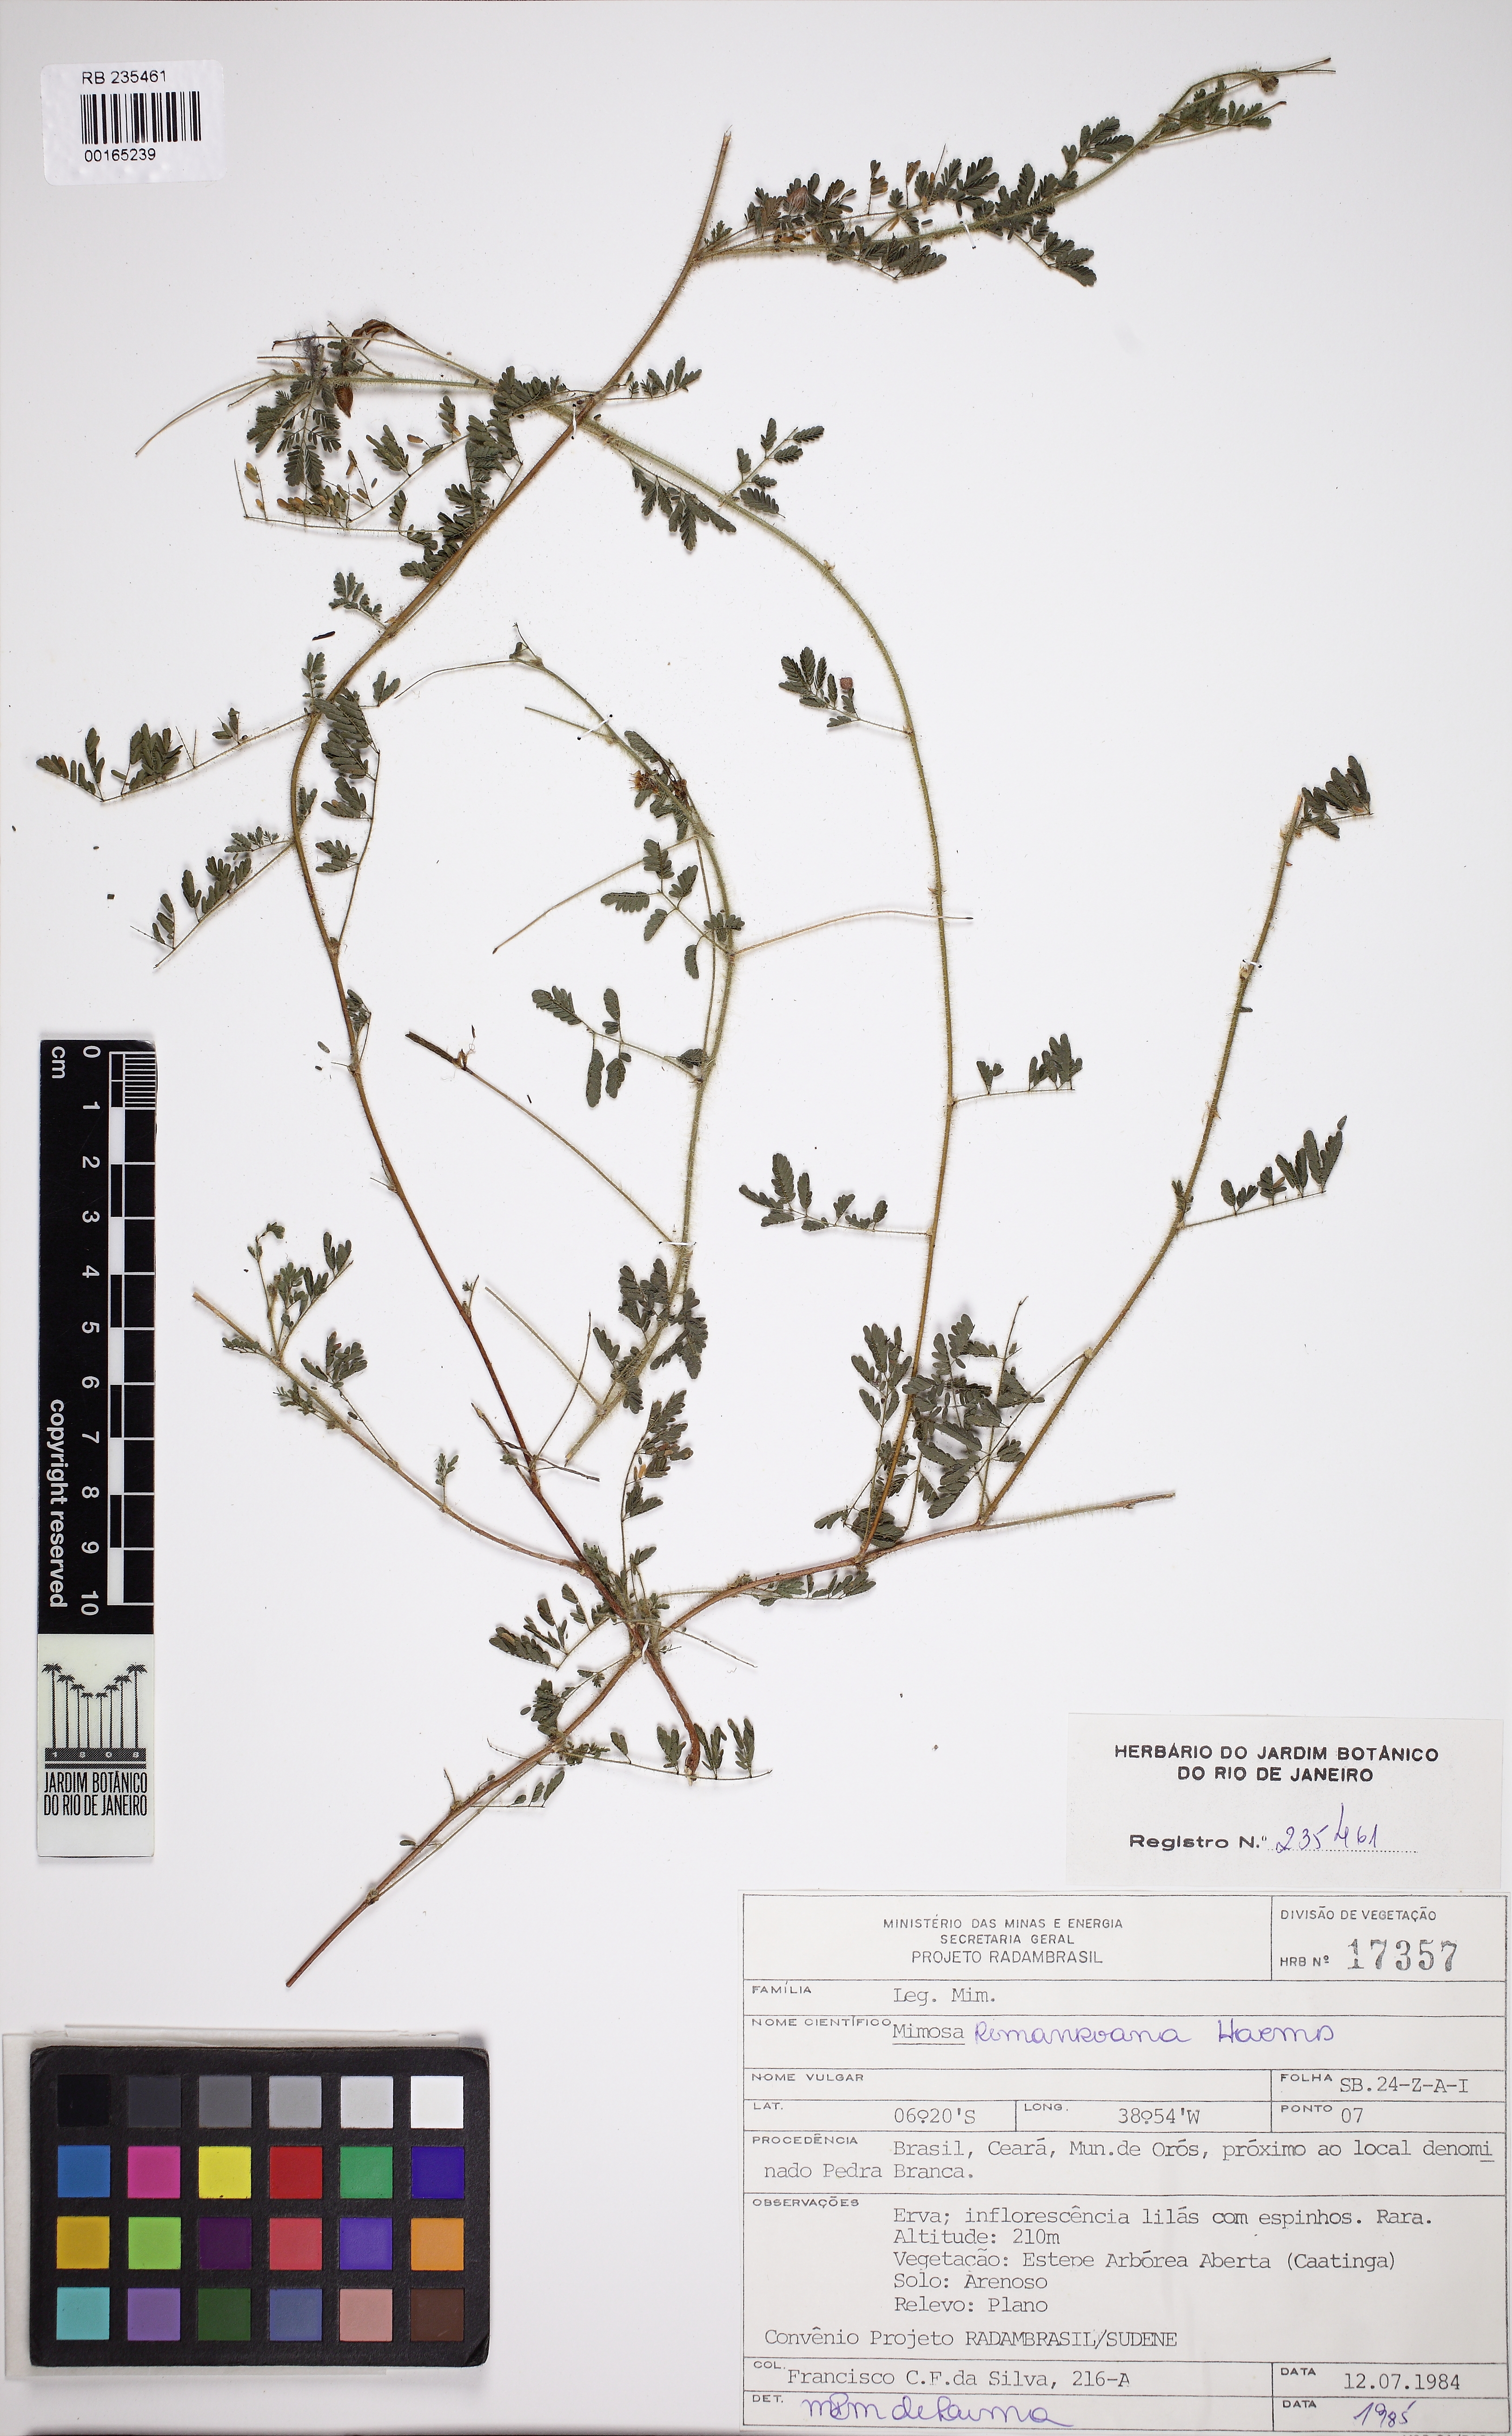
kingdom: Plantae
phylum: Tracheophyta
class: Magnoliopsida
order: Fabales
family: Fabaceae
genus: Mimosa
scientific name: Mimosa misera
